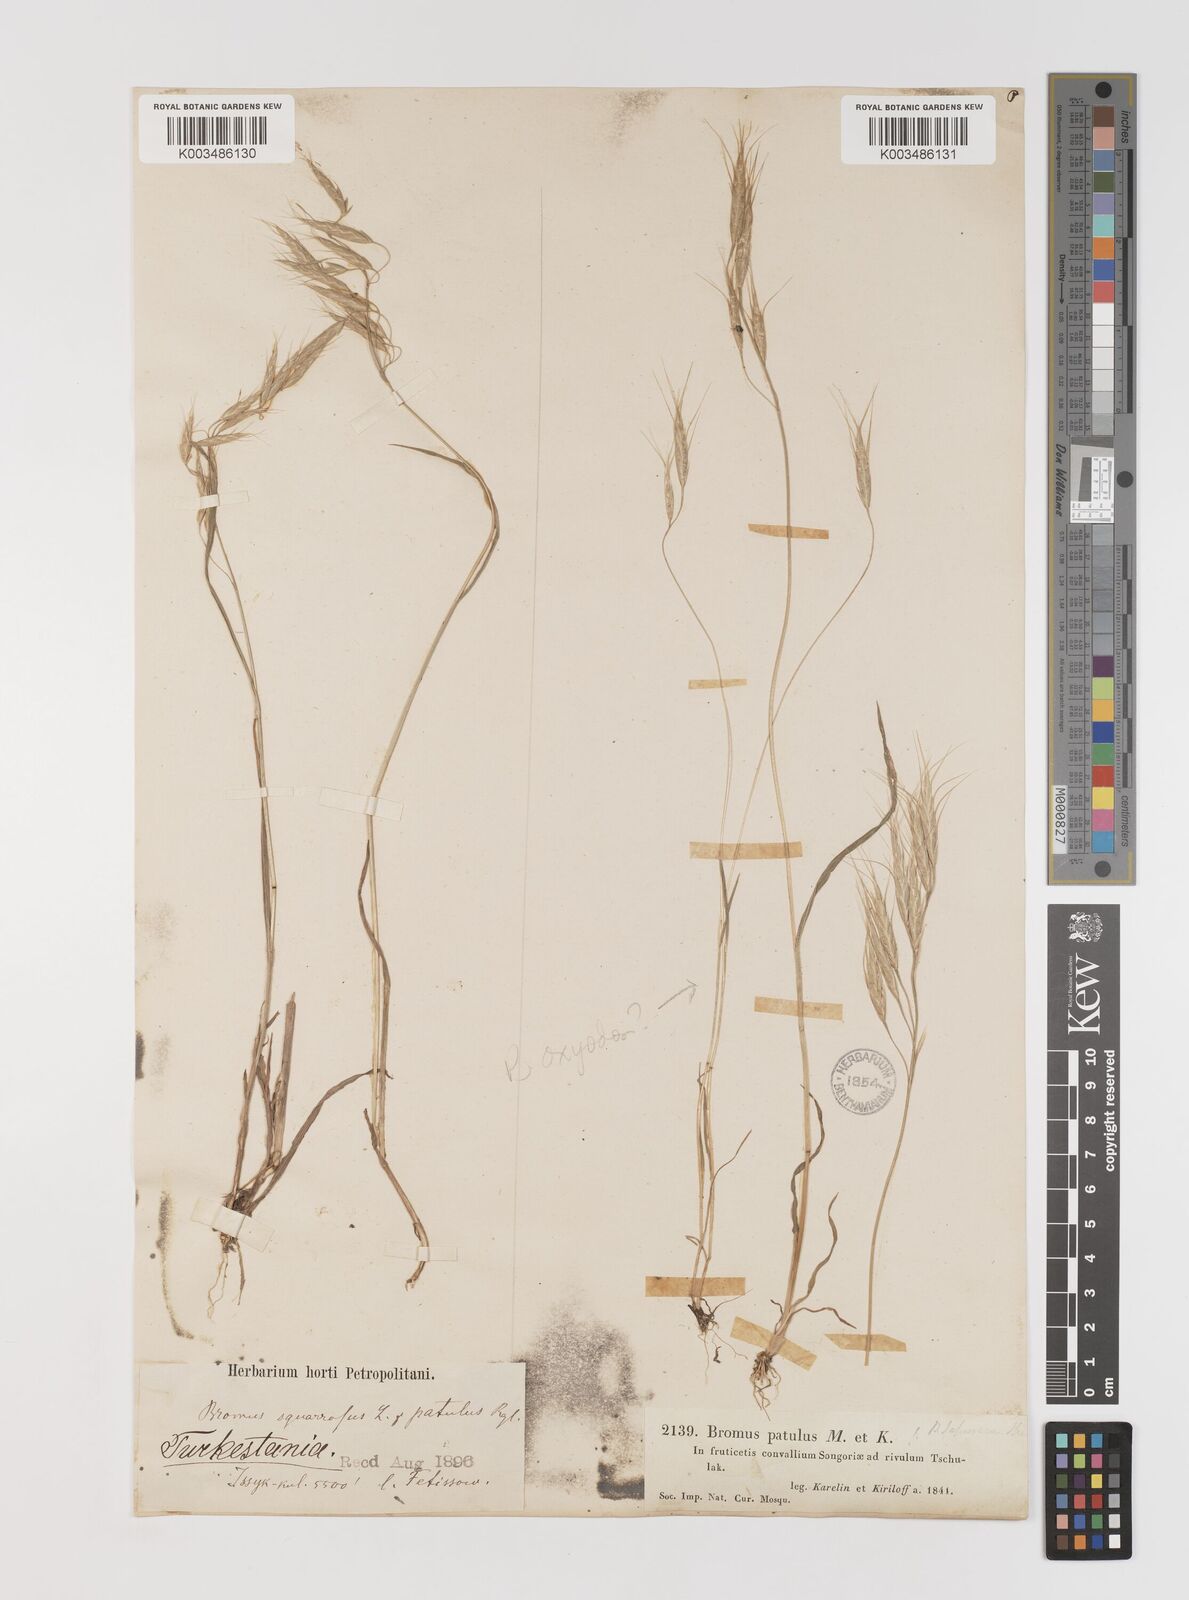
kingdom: Plantae
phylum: Tracheophyta
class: Liliopsida
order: Poales
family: Poaceae
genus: Bromus
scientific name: Bromus japonicus
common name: Japanese brome
